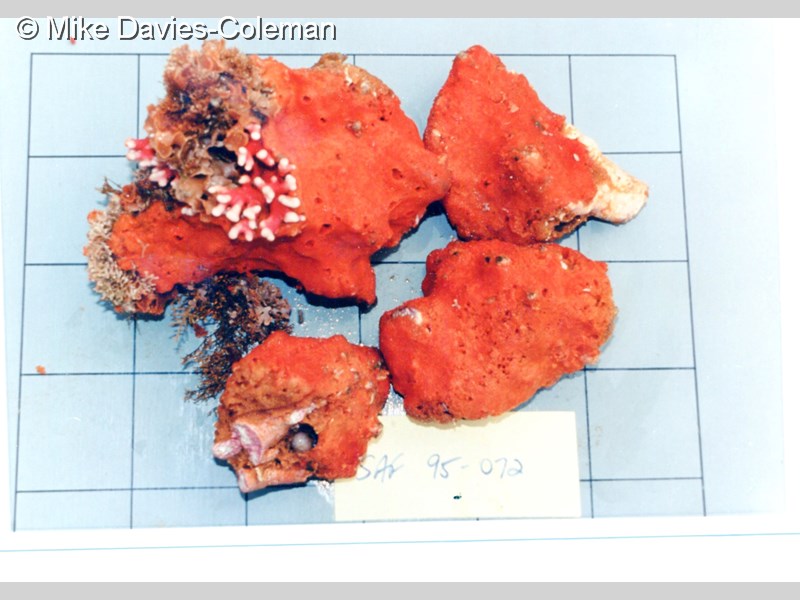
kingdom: Animalia
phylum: Porifera
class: Demospongiae
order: Poecilosclerida
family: Myxillidae
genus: Myxilla
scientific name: Myxilla
